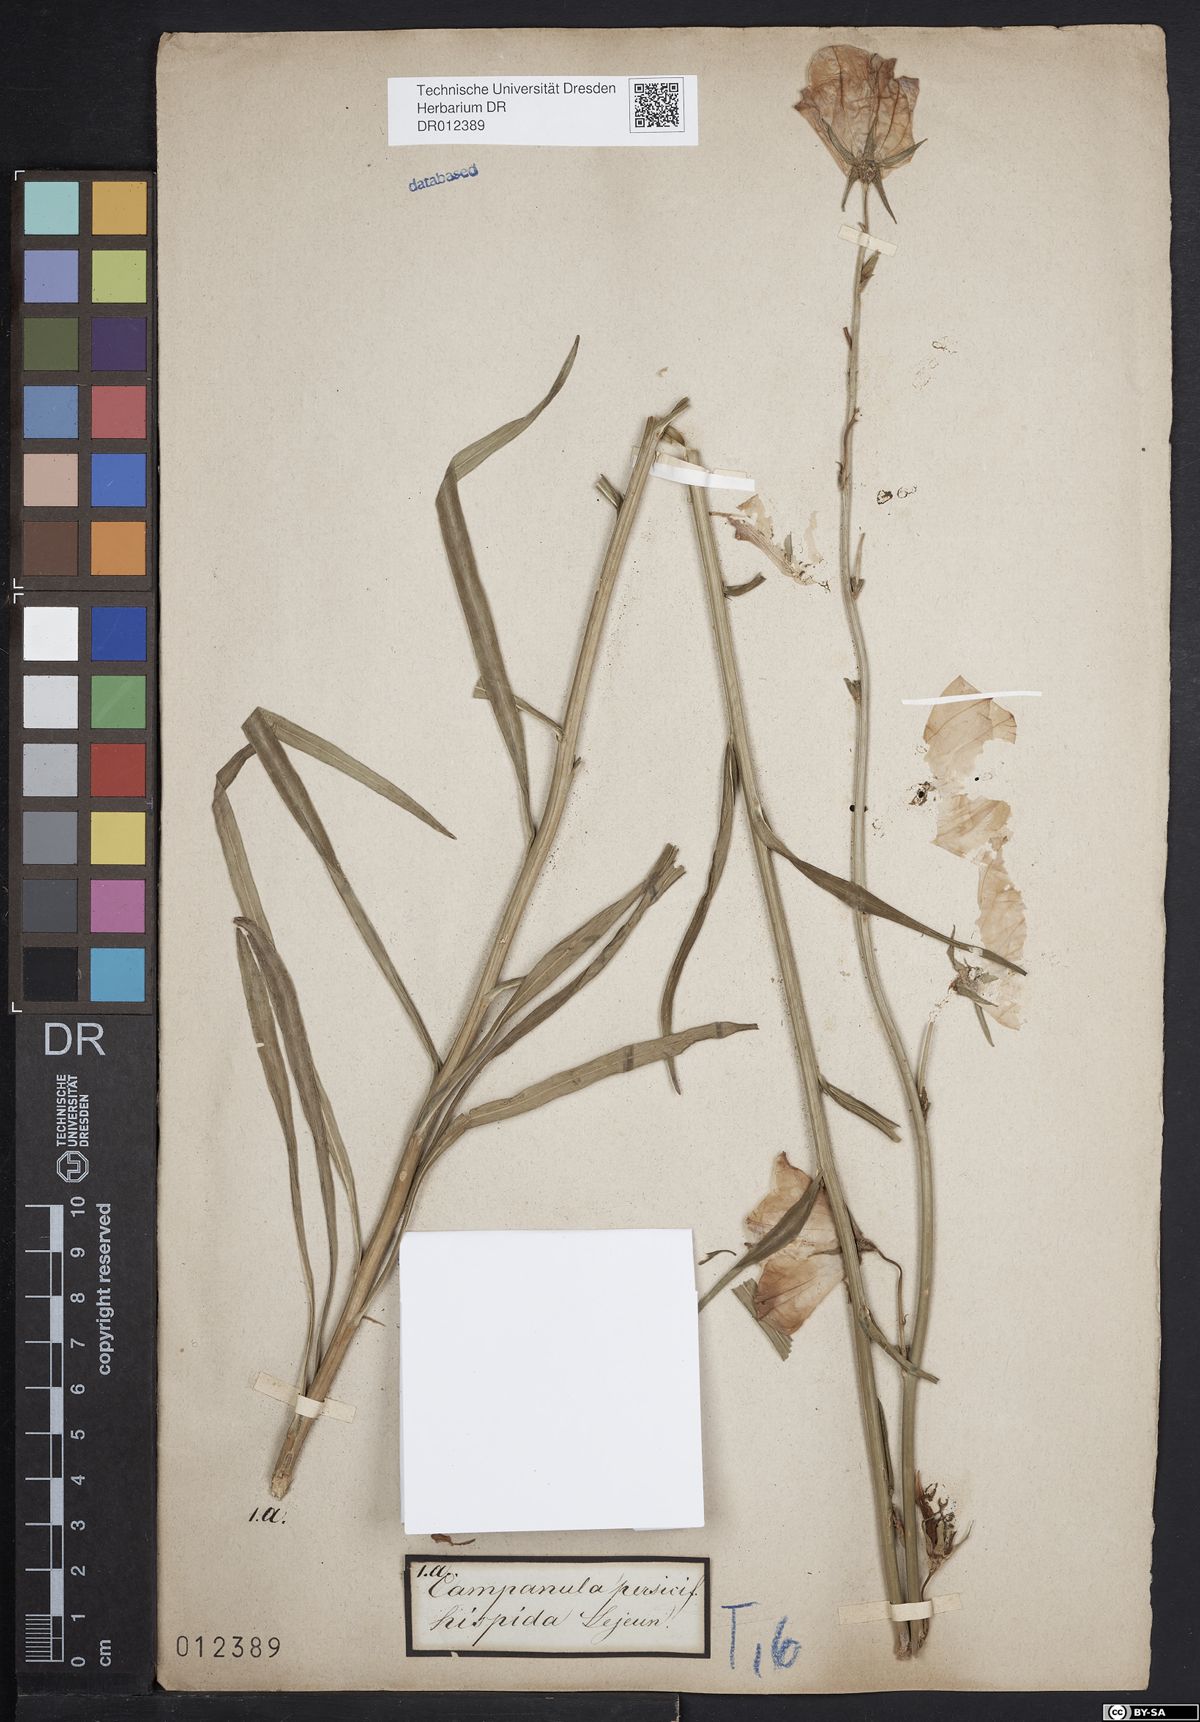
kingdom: Plantae
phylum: Tracheophyta
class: Magnoliopsida
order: Asterales
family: Campanulaceae
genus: Campanula
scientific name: Campanula persicifolia
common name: Peach-leaved bellflower
